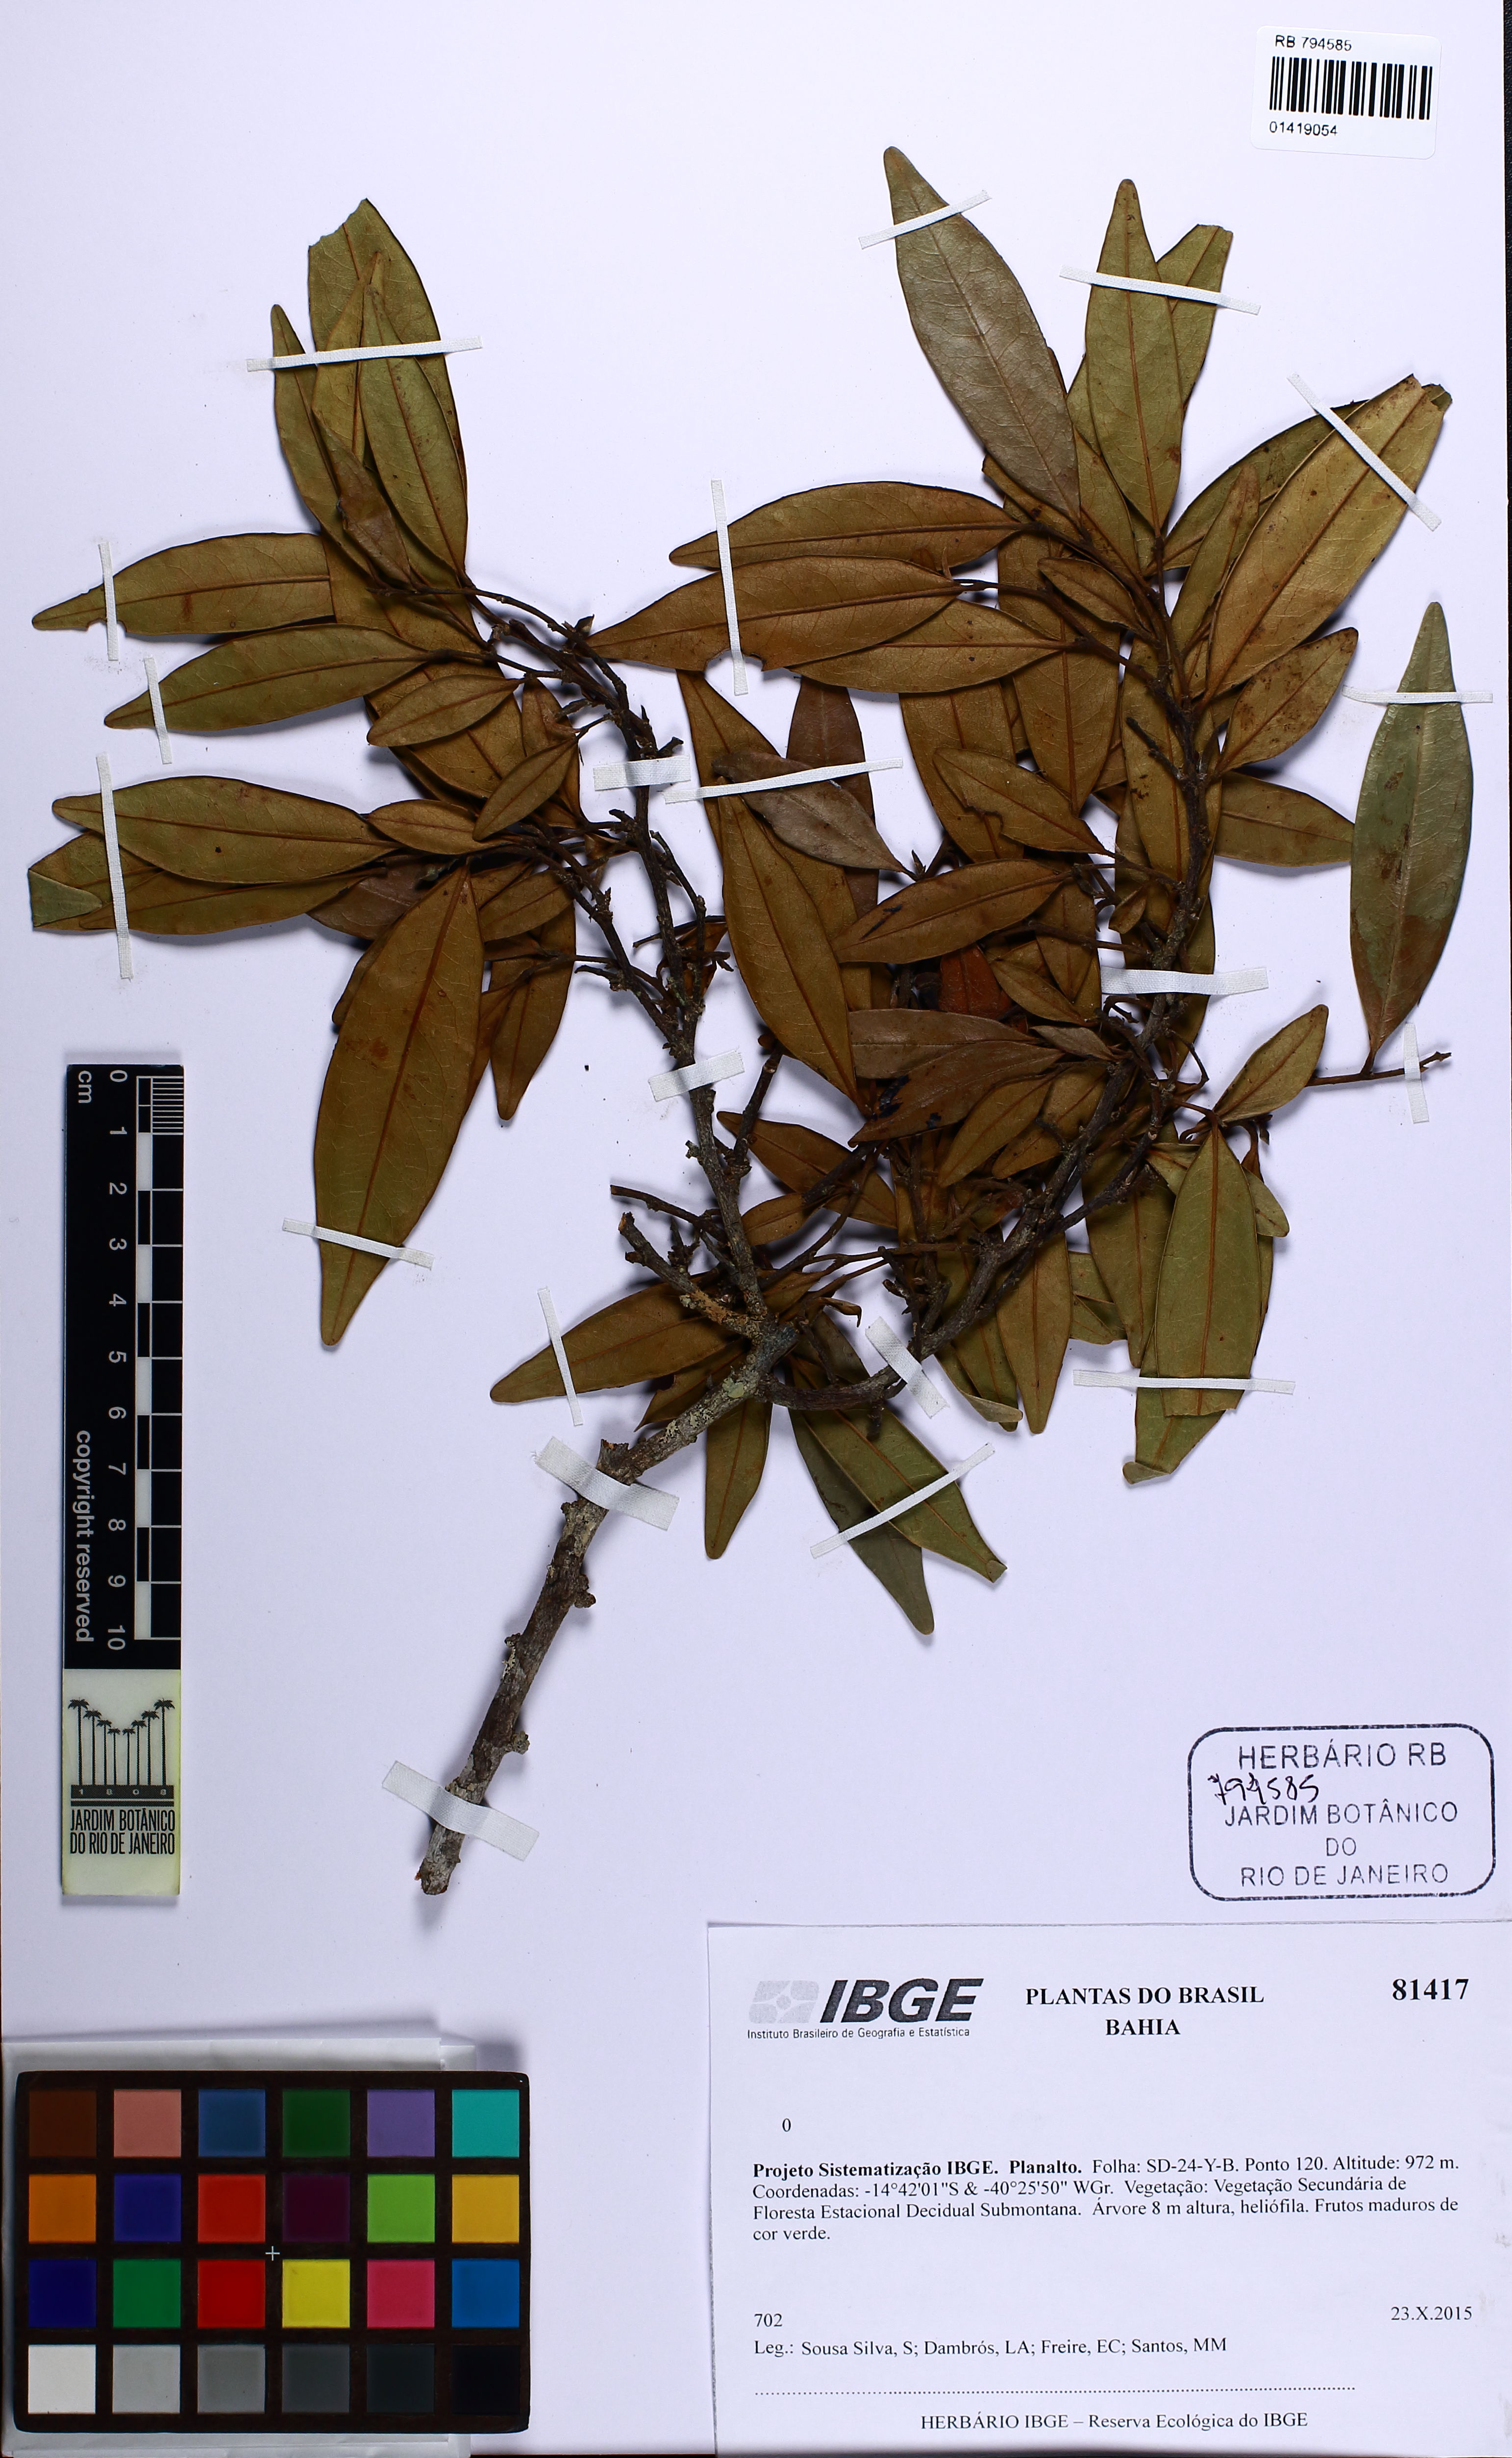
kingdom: Plantae
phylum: Tracheophyta
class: Magnoliopsida
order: Magnoliales
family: Annonaceae
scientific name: Annonaceae
